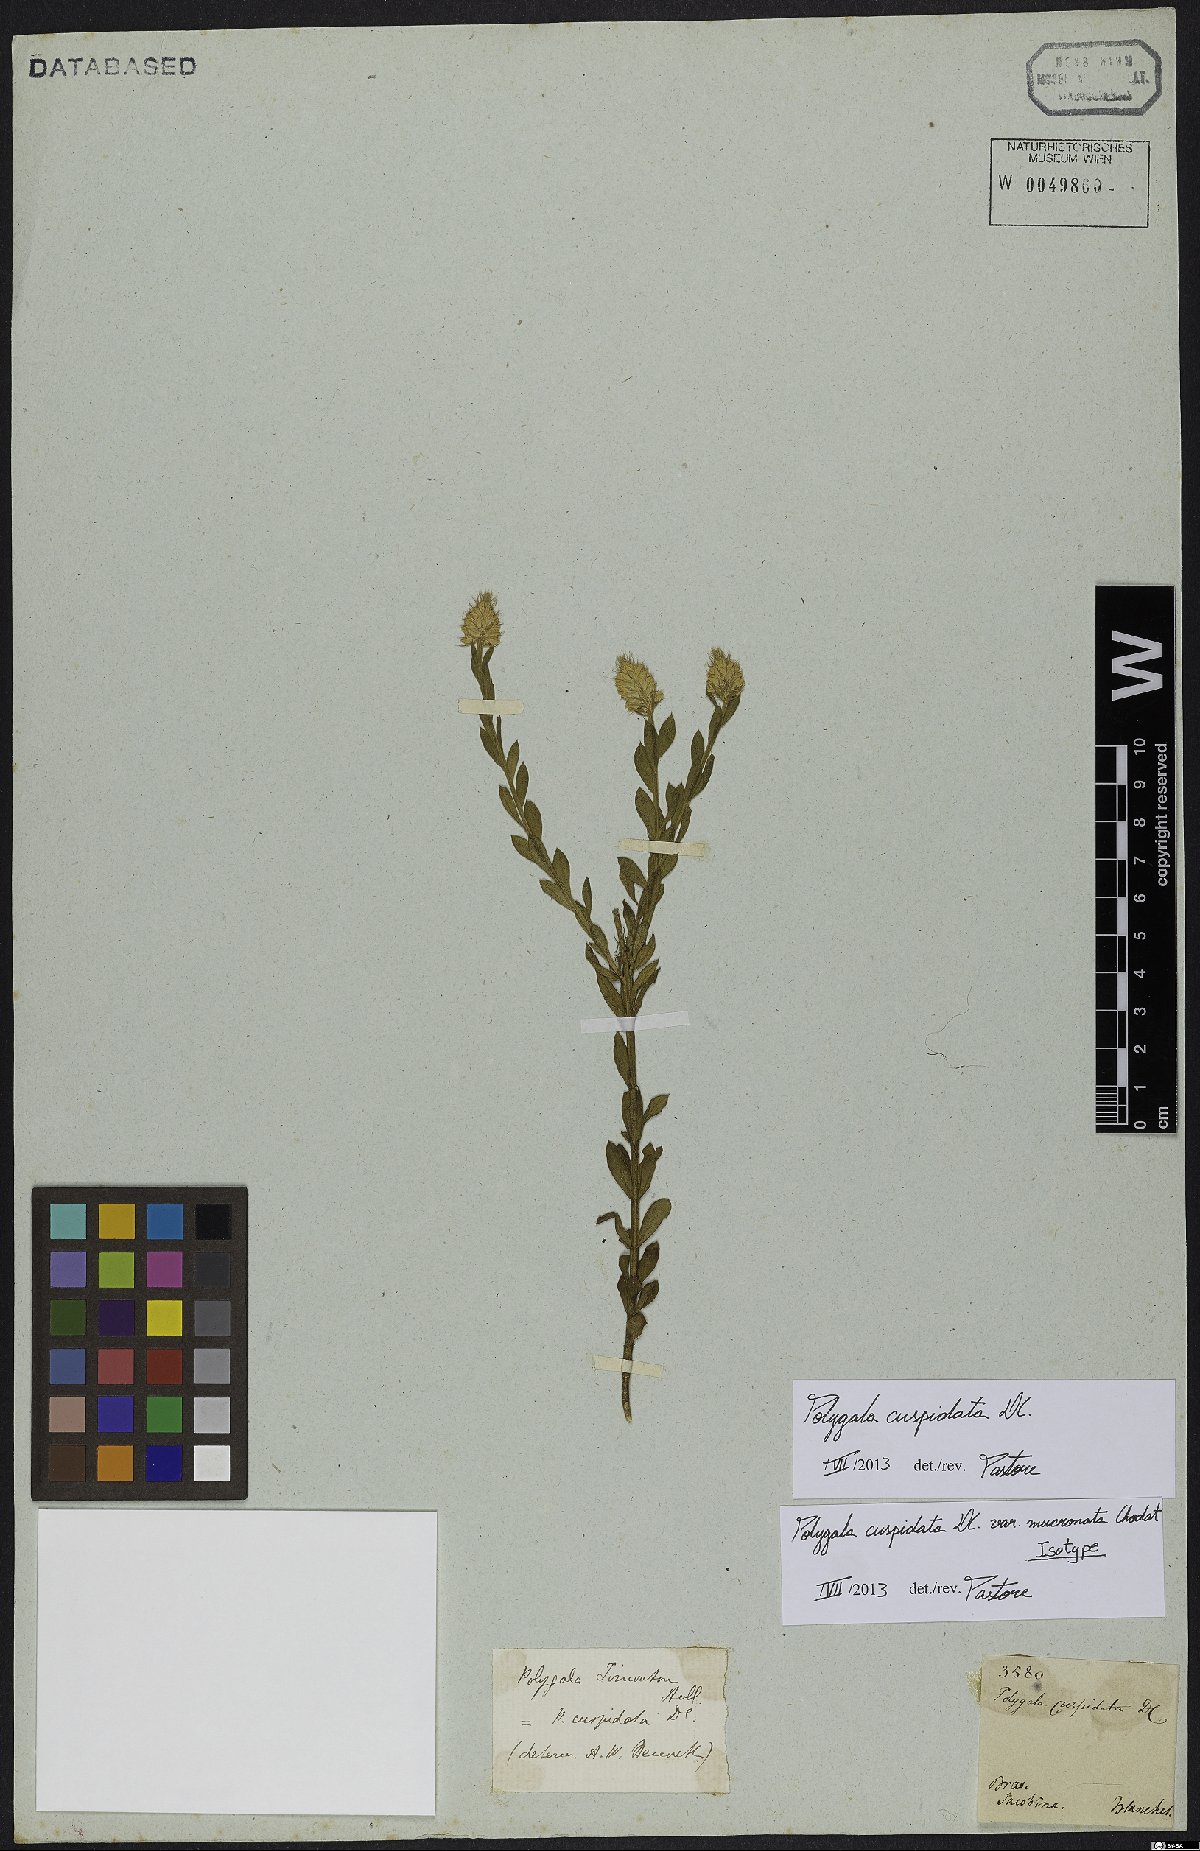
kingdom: Plantae
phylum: Tracheophyta
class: Magnoliopsida
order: Fabales
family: Polygalaceae
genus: Polygala
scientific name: Polygala cuspidata
